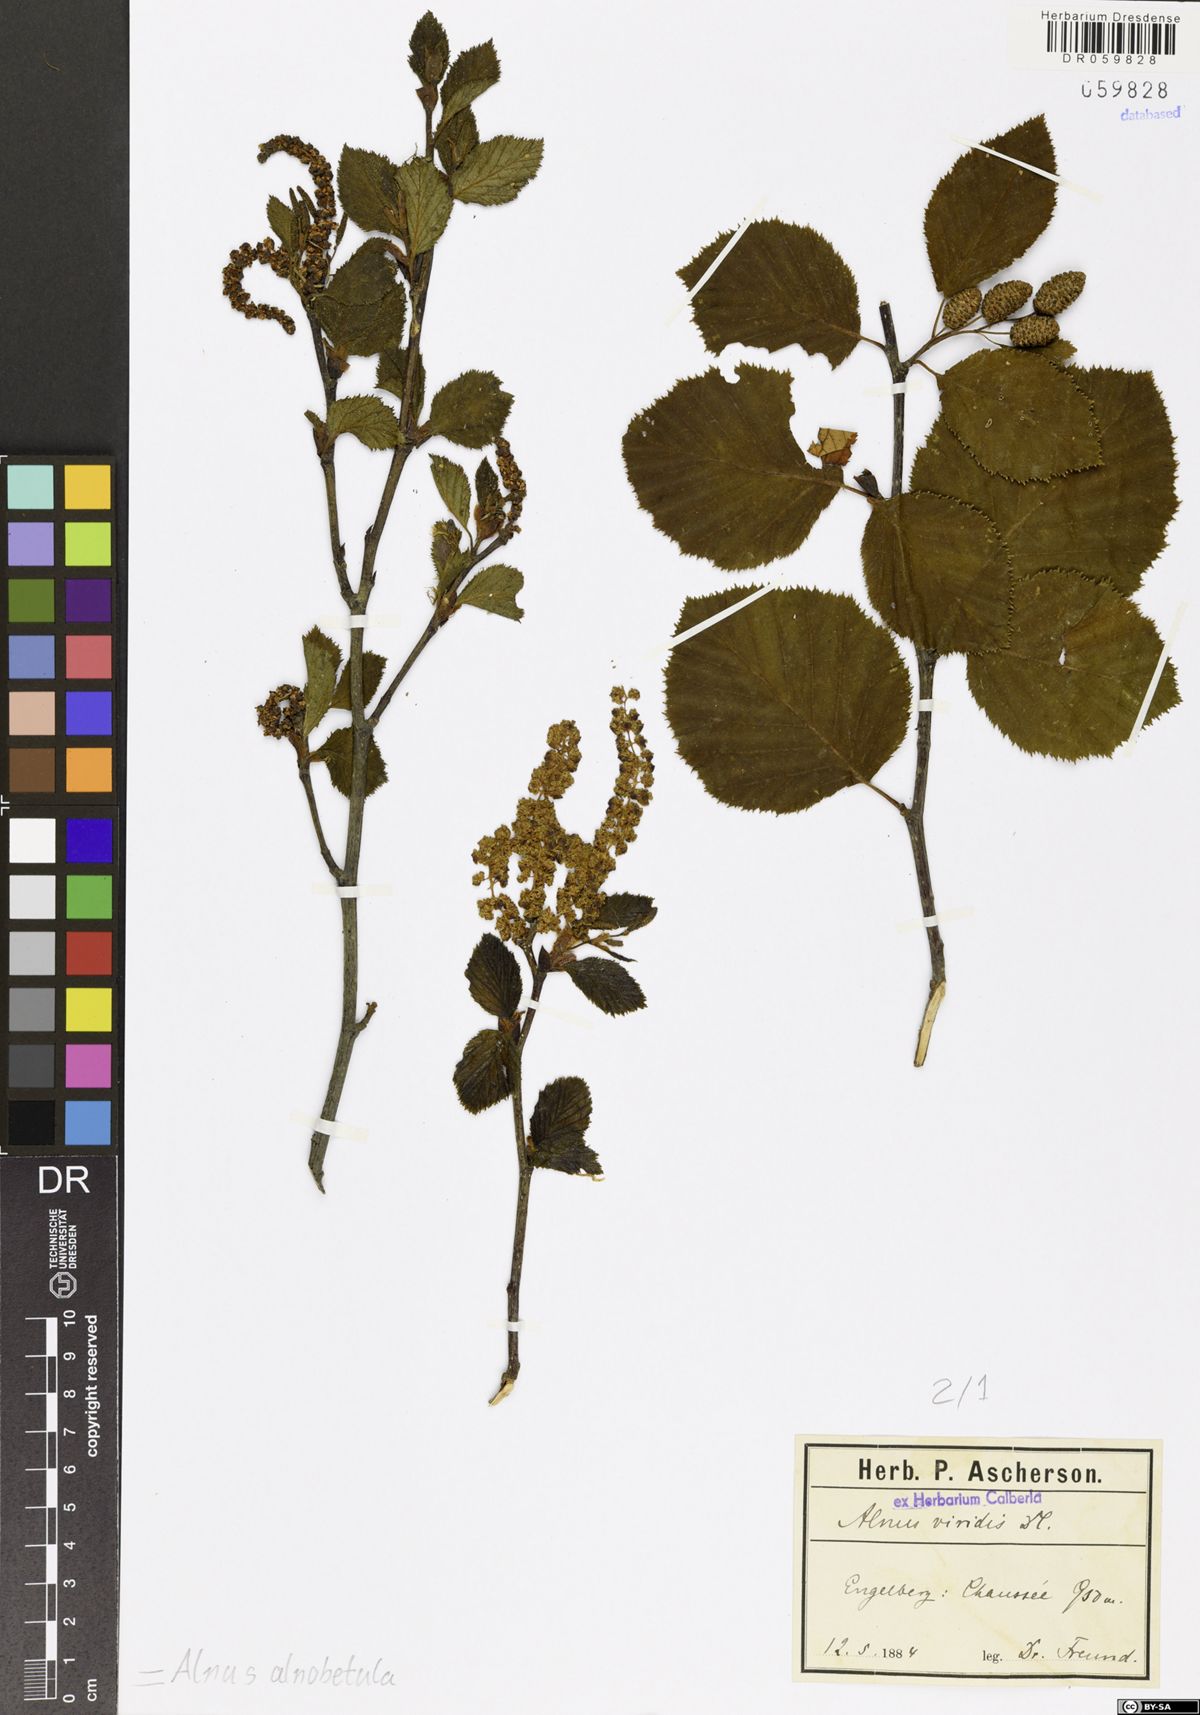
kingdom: Plantae
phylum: Tracheophyta
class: Magnoliopsida
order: Fagales
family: Betulaceae
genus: Alnus
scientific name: Alnus alnobetula
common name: Green alder
